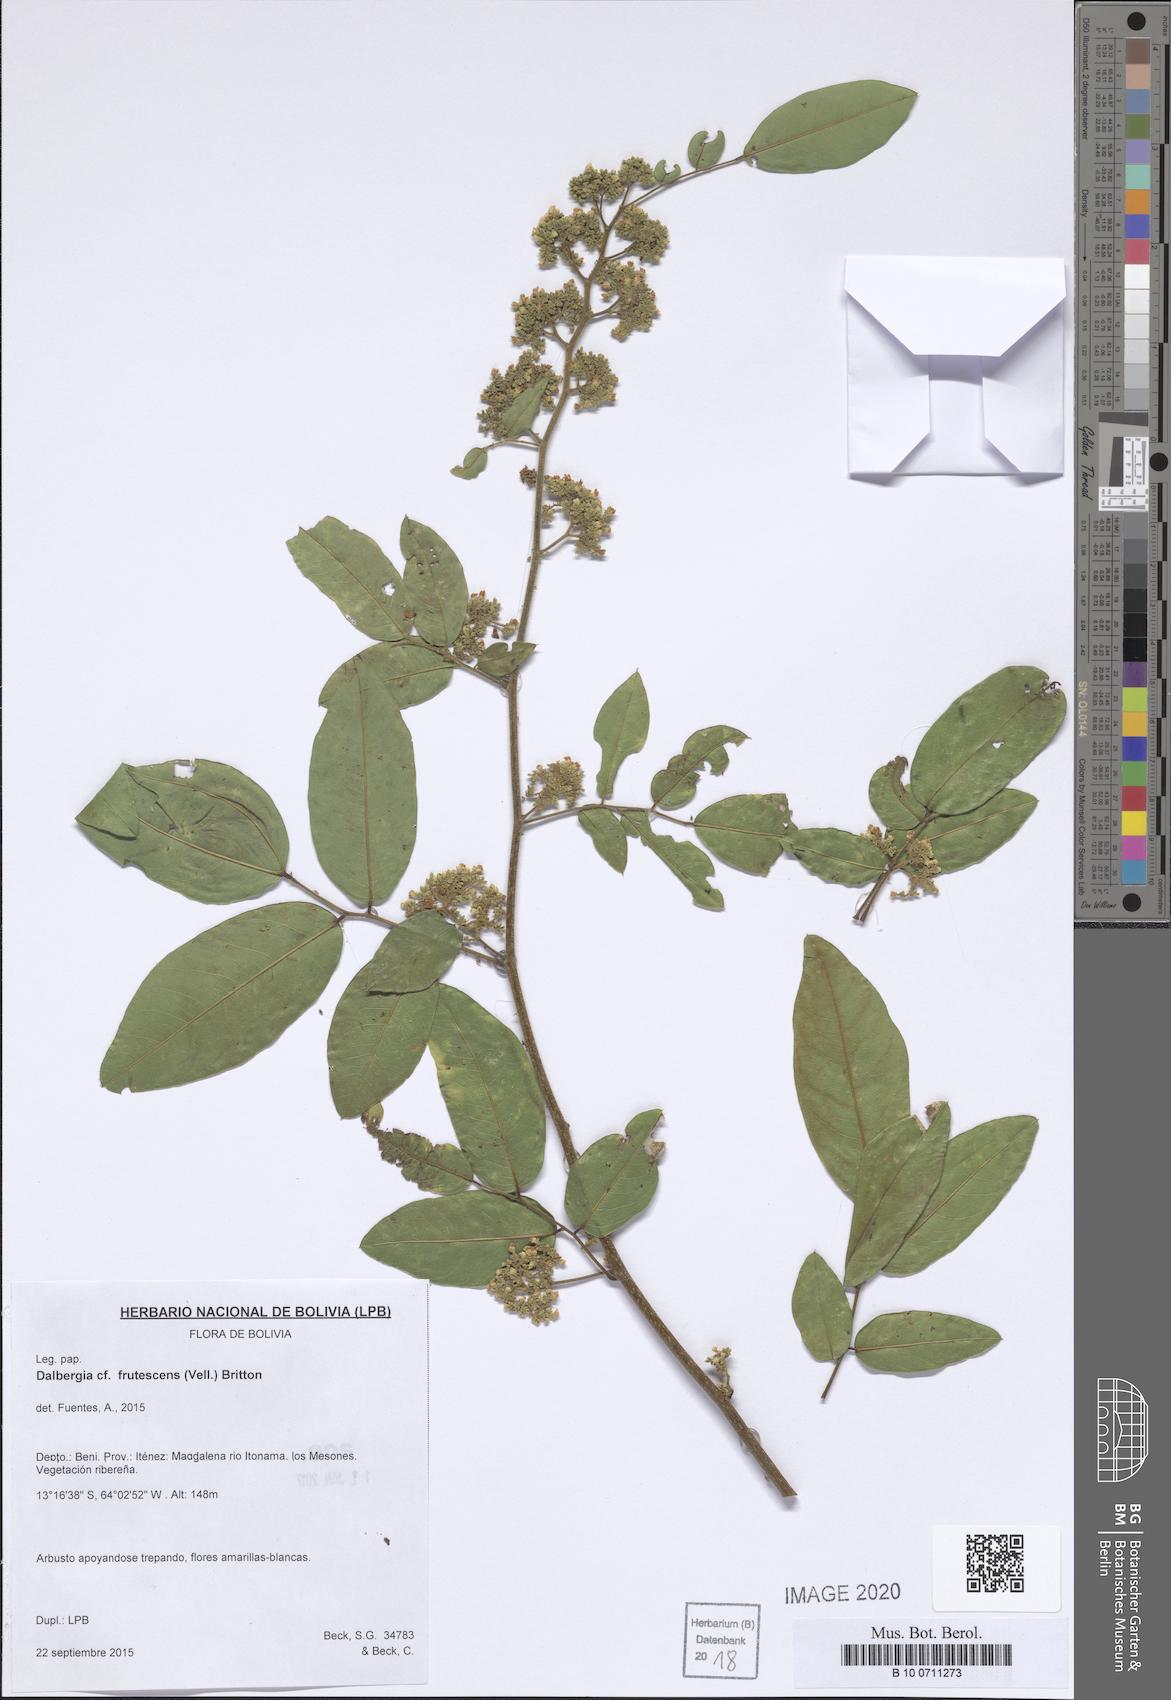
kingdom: Plantae
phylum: Tracheophyta
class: Magnoliopsida
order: Fabales
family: Fabaceae
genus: Dalbergia
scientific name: Dalbergia frutescens
